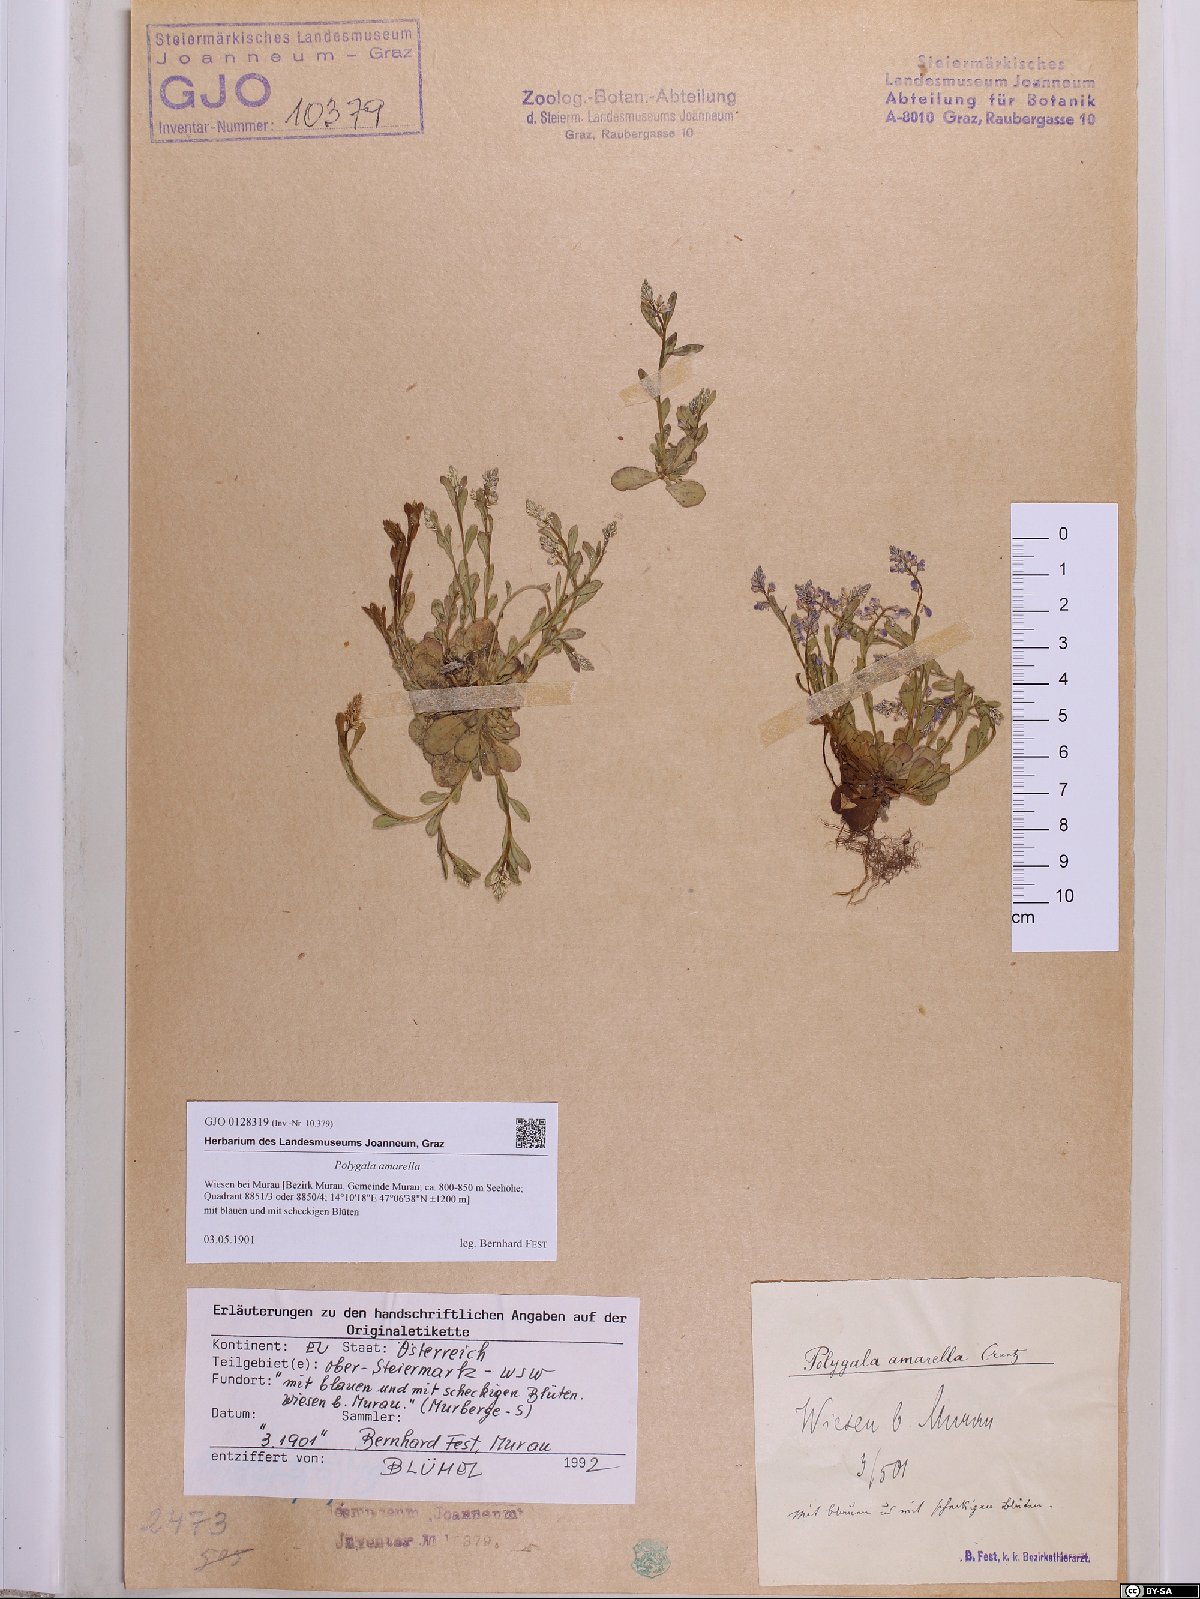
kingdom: Plantae
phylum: Tracheophyta
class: Magnoliopsida
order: Fabales
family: Polygalaceae
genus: Polygala
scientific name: Polygala amarella
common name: Dwarf milkwort
